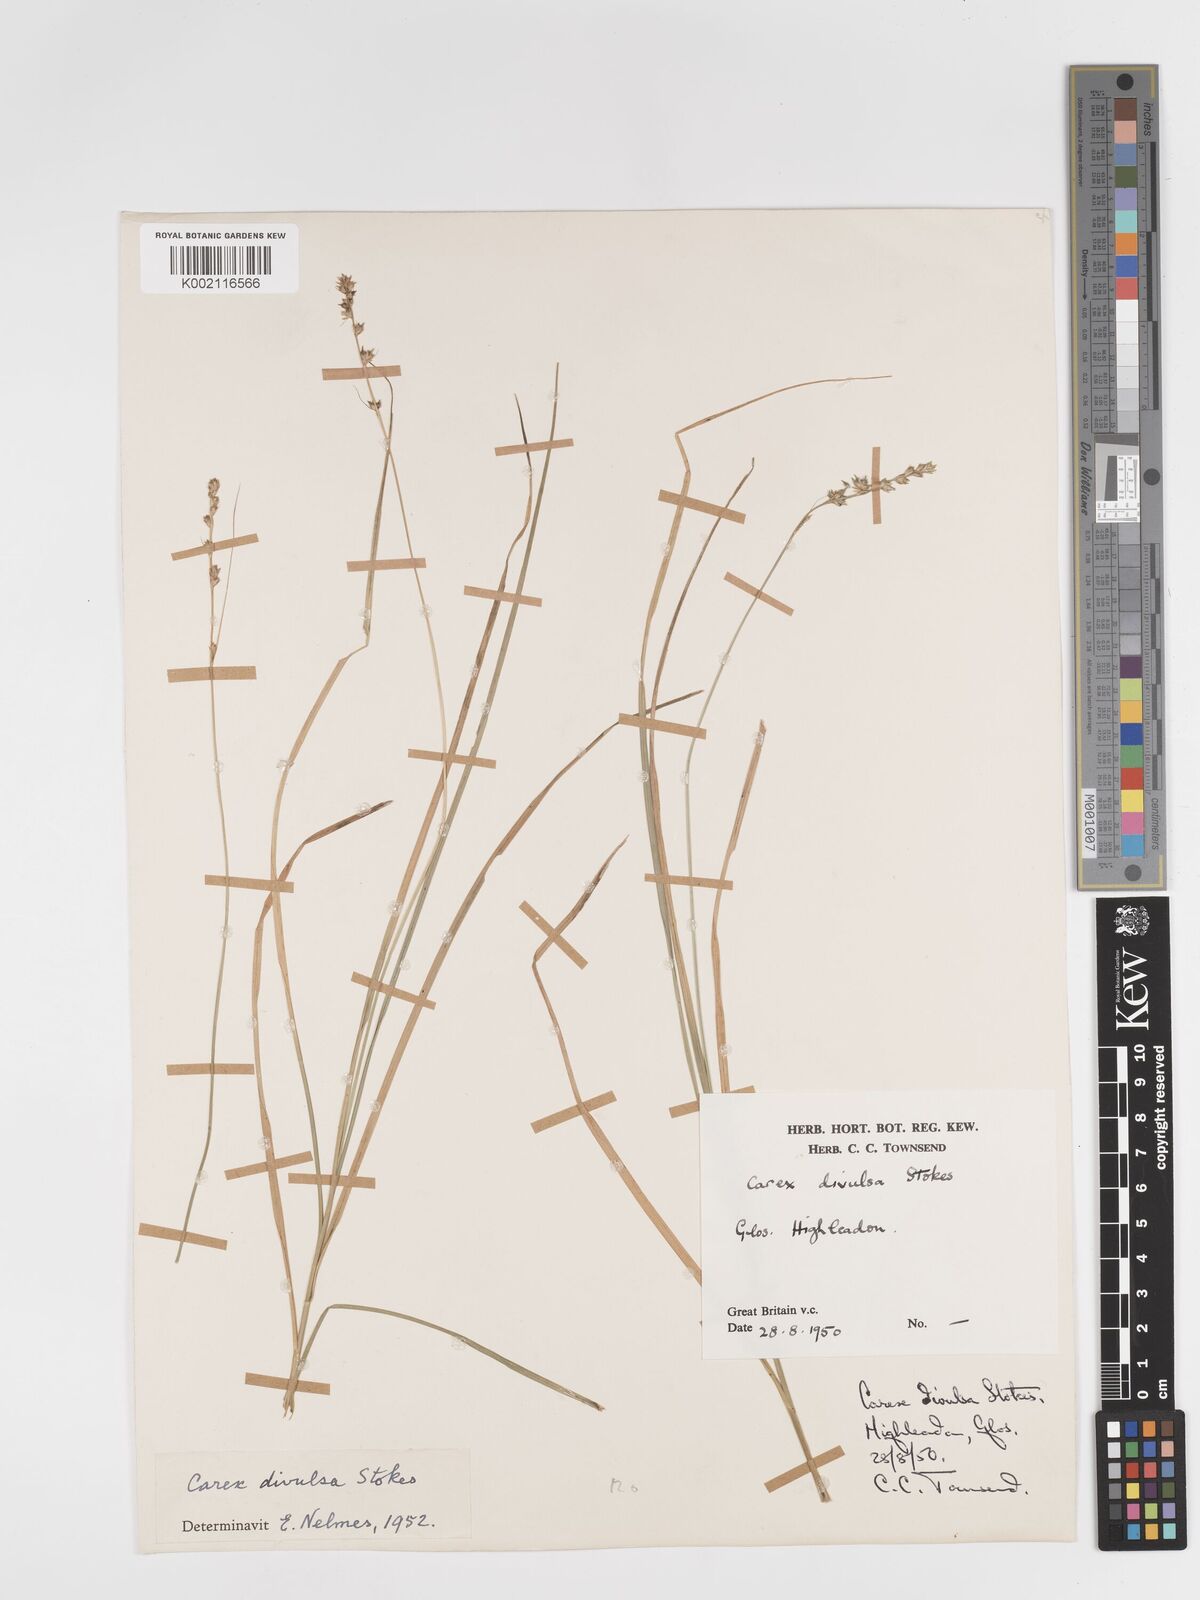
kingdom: Plantae
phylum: Tracheophyta
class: Liliopsida
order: Poales
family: Cyperaceae
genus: Carex
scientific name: Carex divulsa
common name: Grassland sedge
